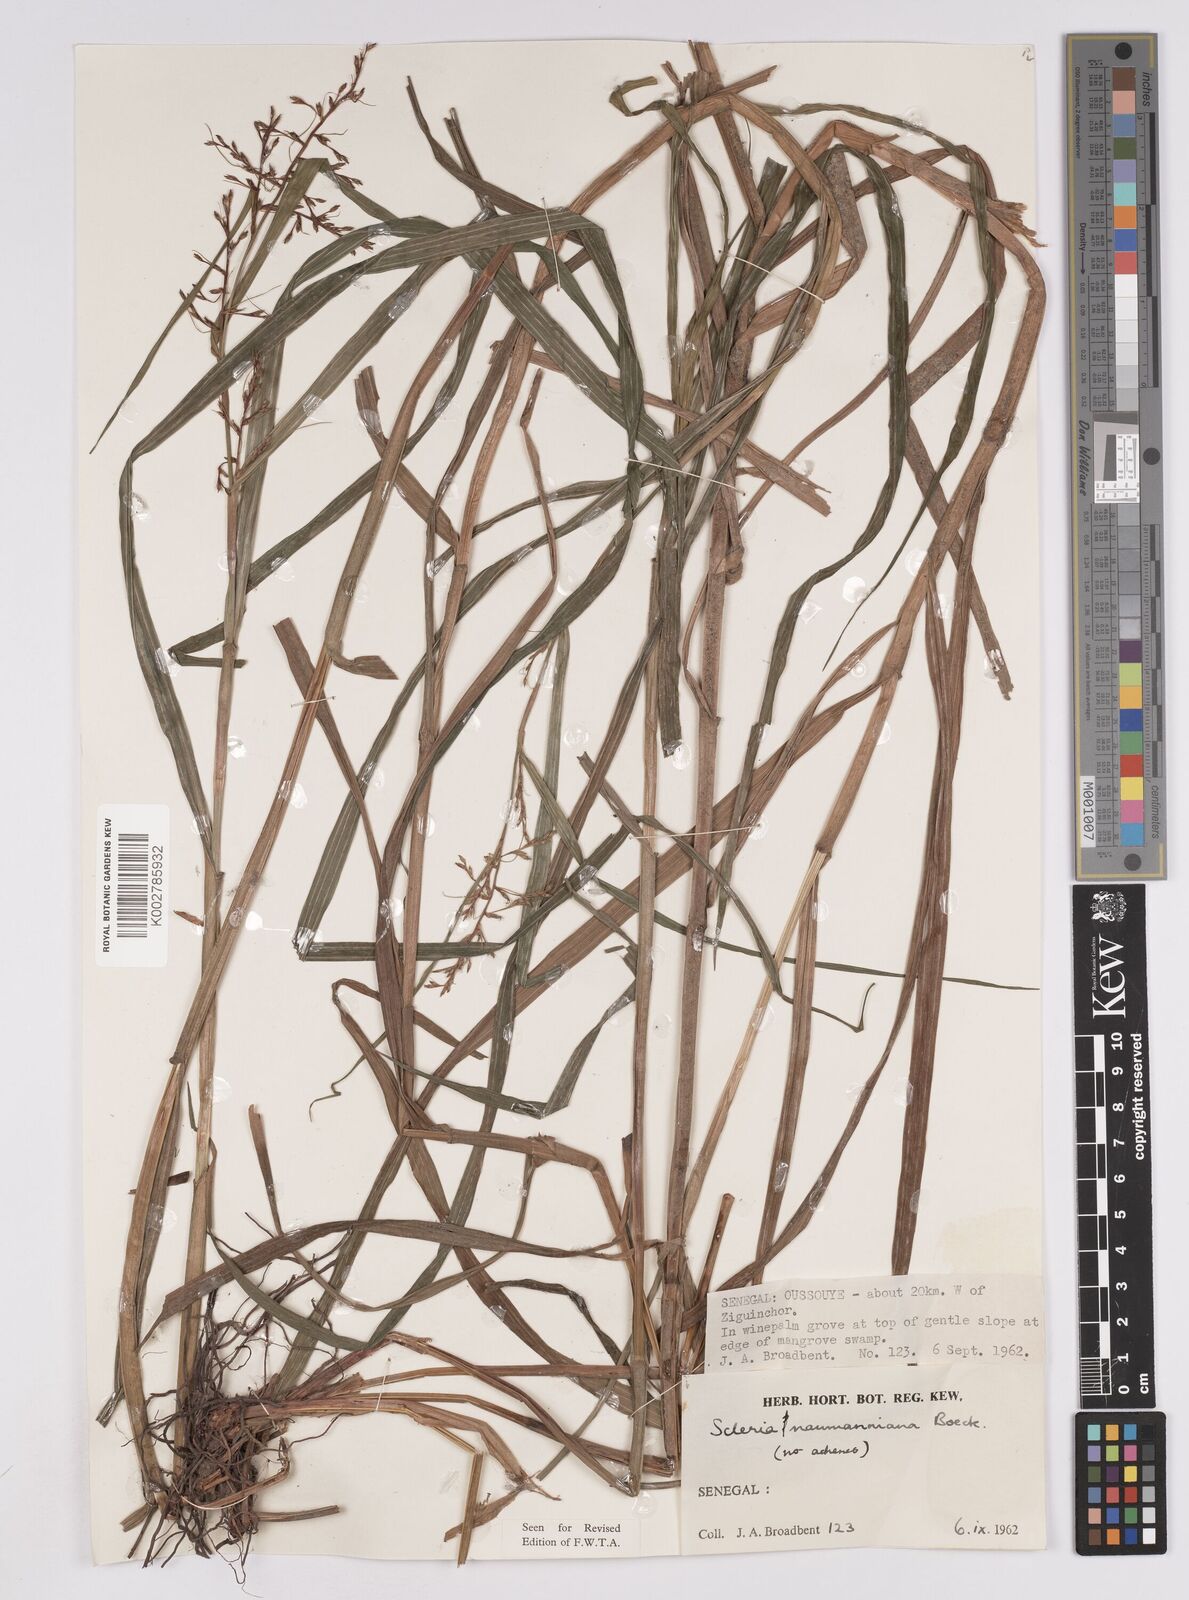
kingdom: Plantae
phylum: Tracheophyta
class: Liliopsida
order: Poales
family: Cyperaceae
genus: Scleria
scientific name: Scleria naumanniana
